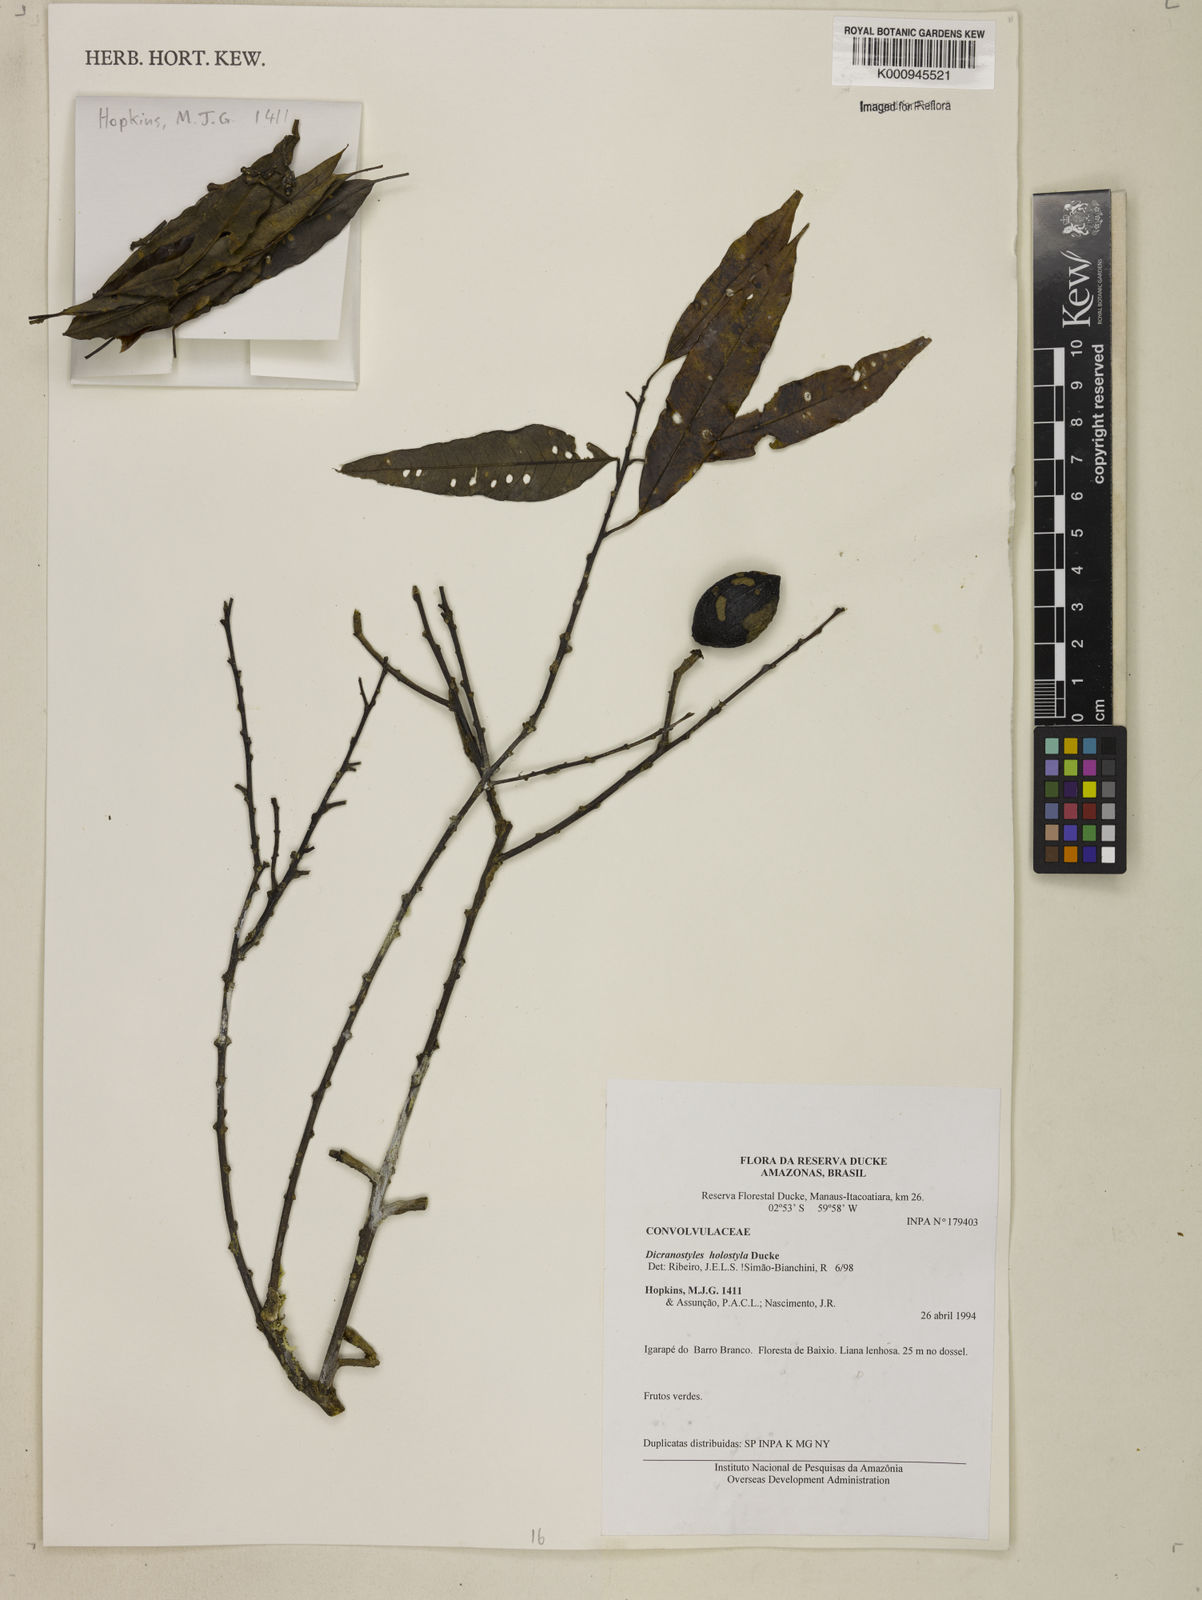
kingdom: Plantae
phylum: Tracheophyta
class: Magnoliopsida
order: Solanales
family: Convolvulaceae
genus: Dicranostyles
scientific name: Dicranostyles holostyla
